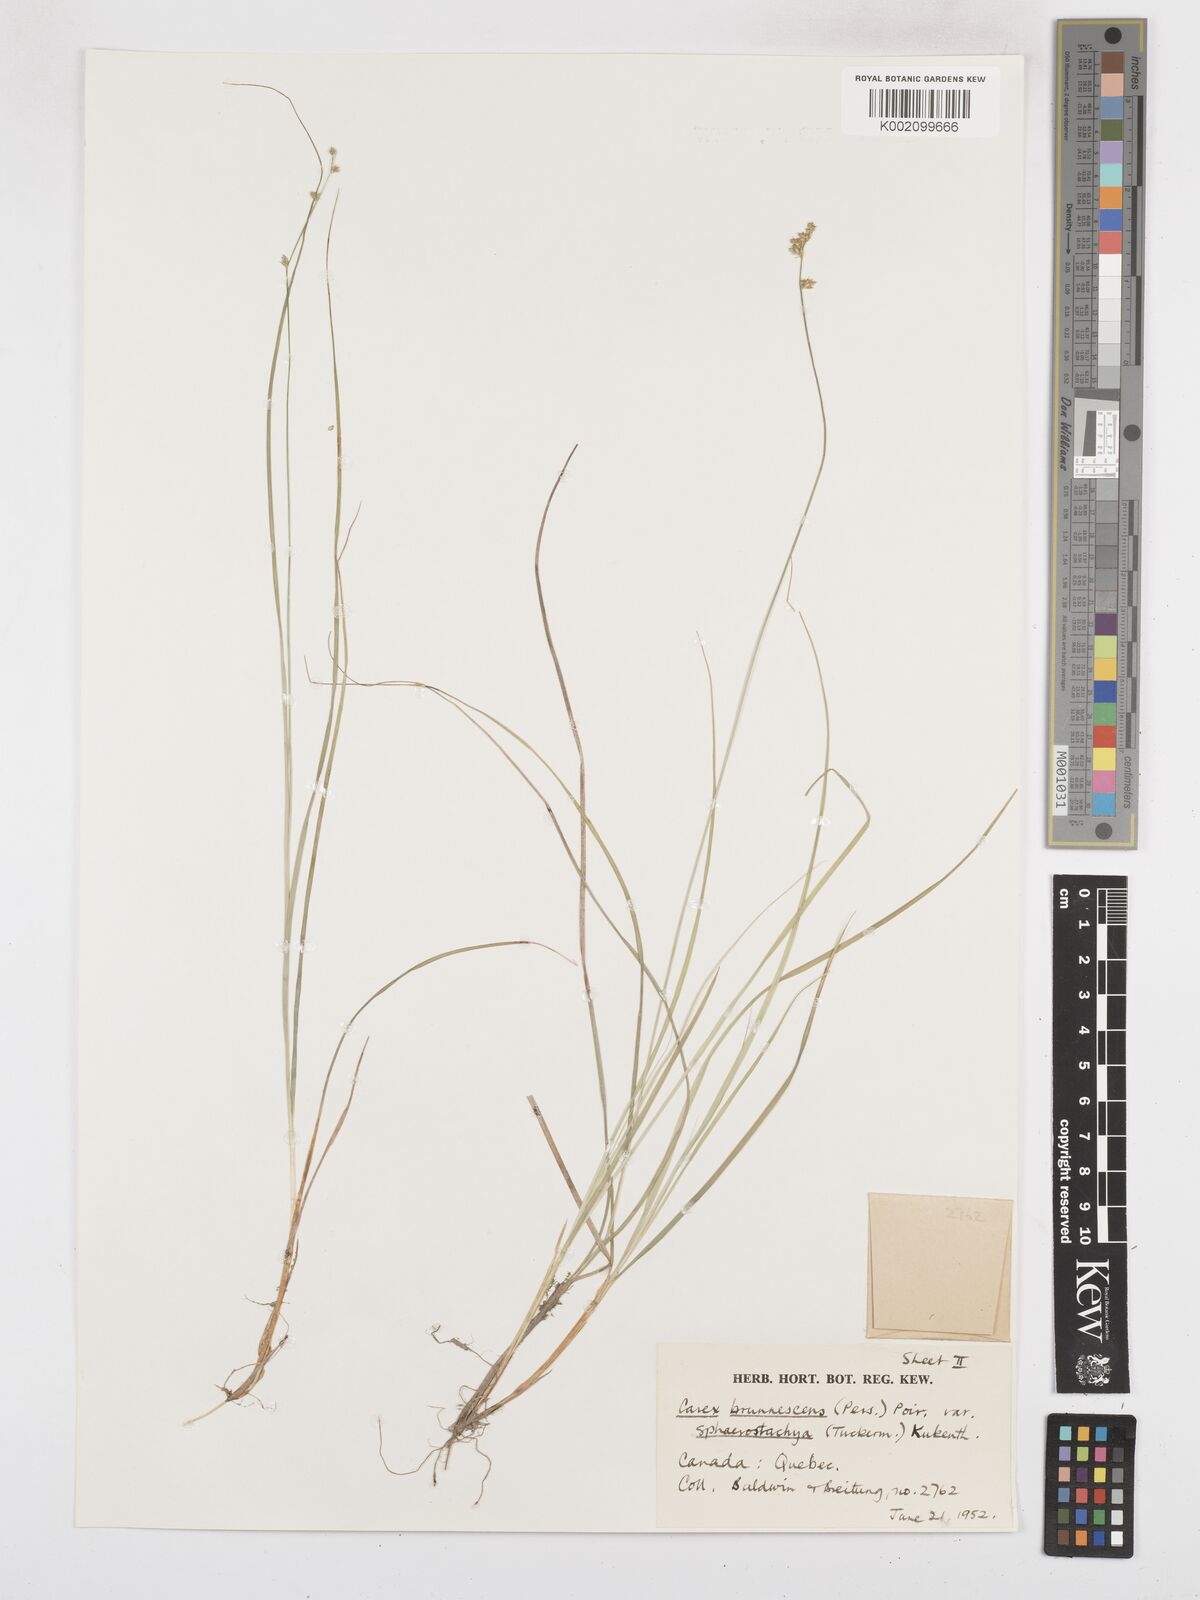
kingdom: Plantae
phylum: Tracheophyta
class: Liliopsida
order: Poales
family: Cyperaceae
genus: Carex
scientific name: Carex brunnescens
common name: Brown sedge
